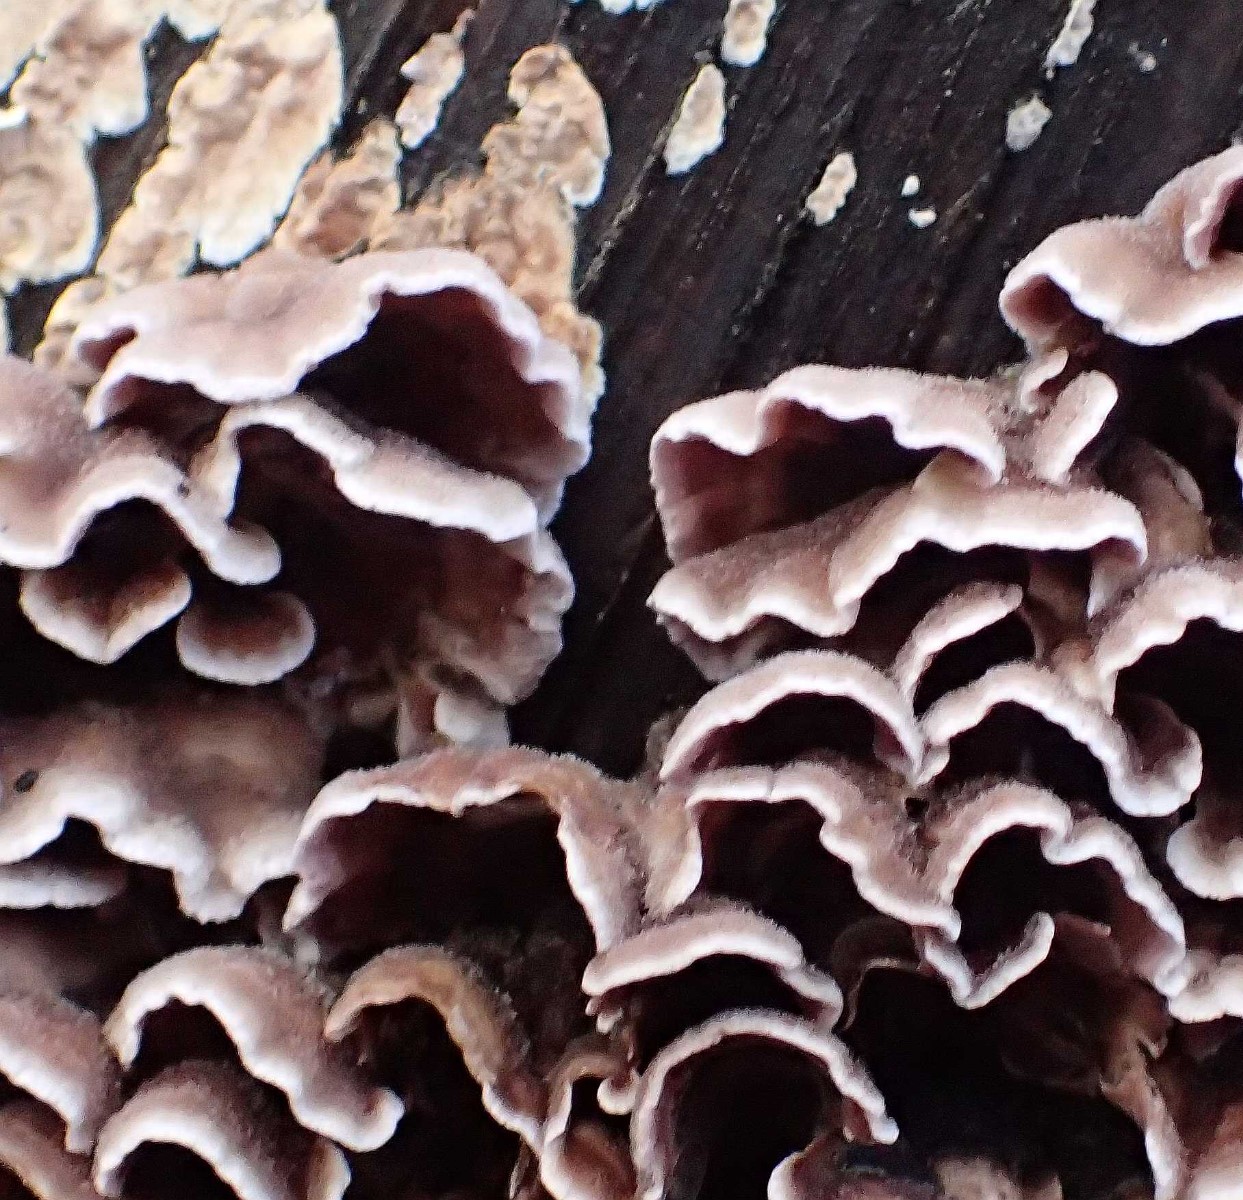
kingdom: Fungi
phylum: Basidiomycota
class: Agaricomycetes
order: Agaricales
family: Cyphellaceae
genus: Chondrostereum
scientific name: Chondrostereum purpureum
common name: purpurlædersvamp
